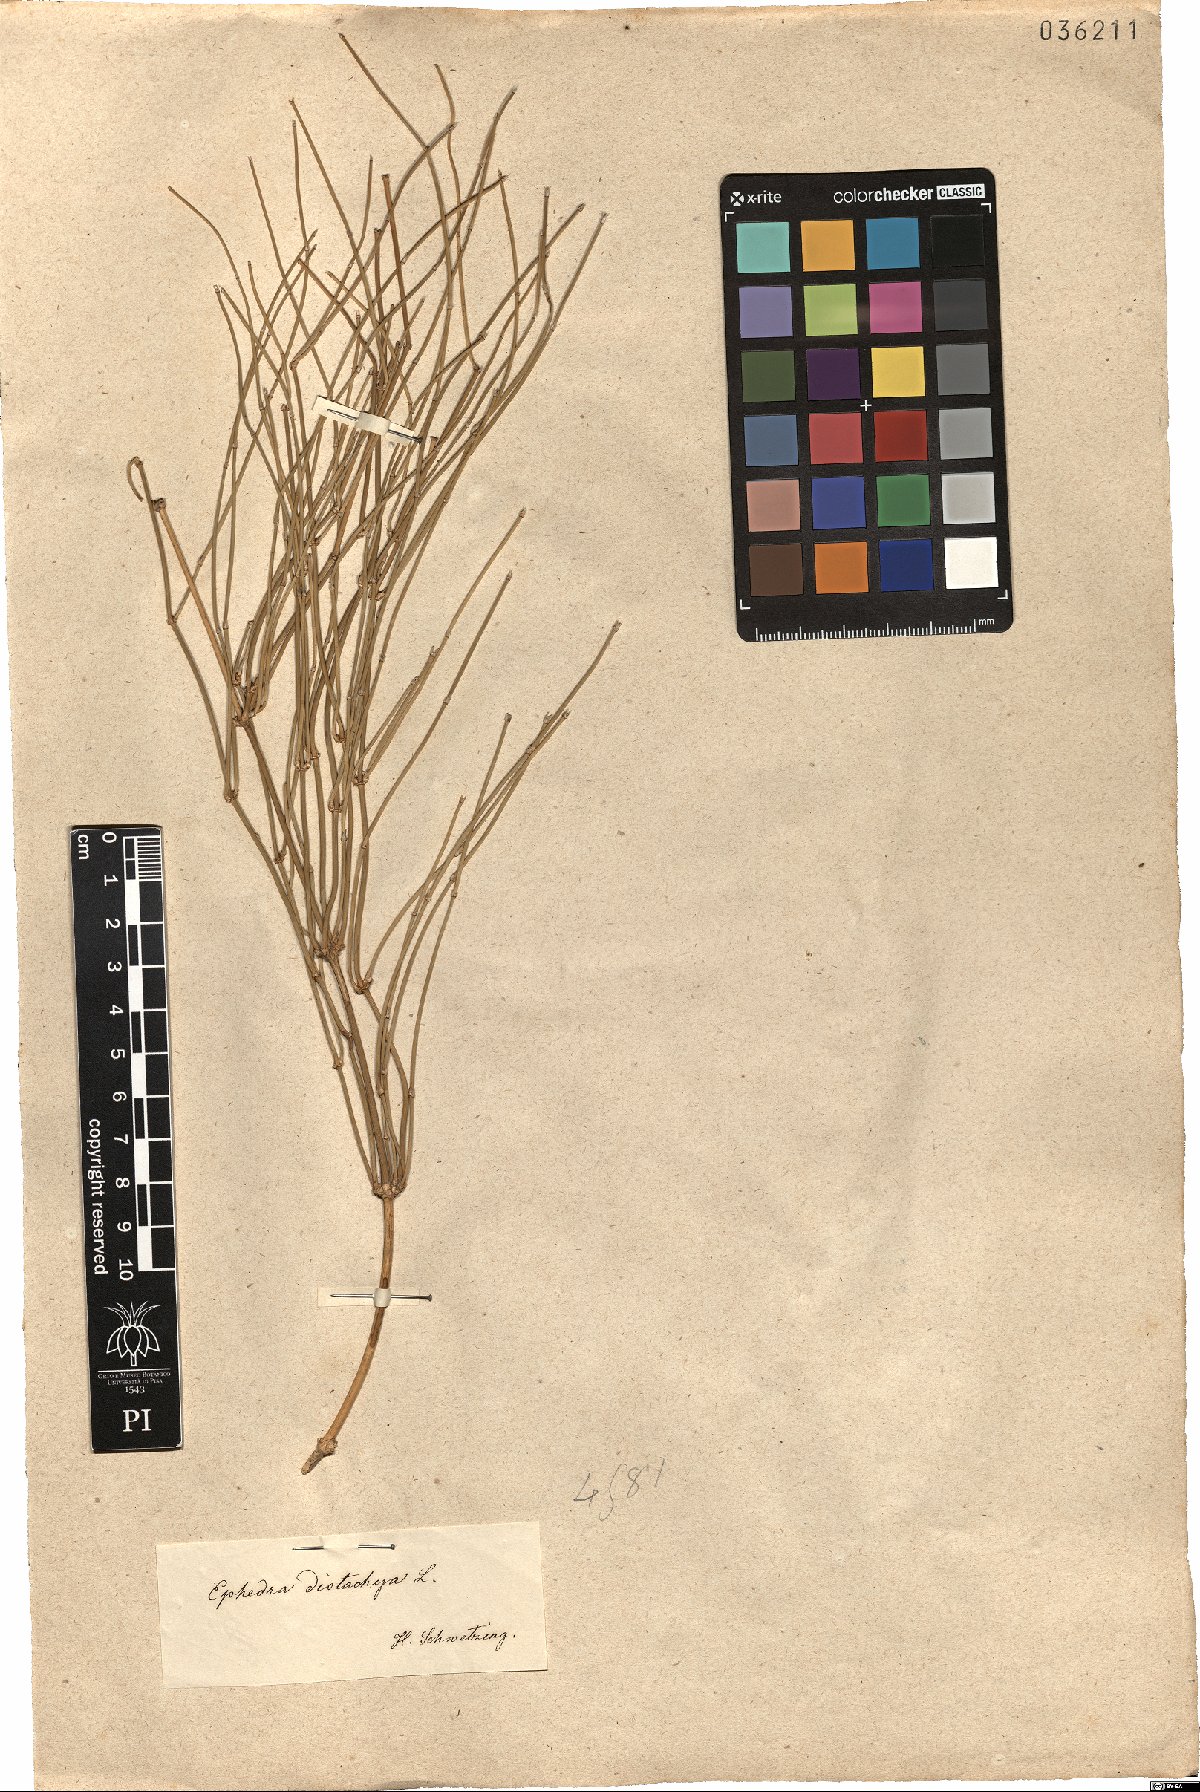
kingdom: Plantae
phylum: Tracheophyta
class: Gnetopsida
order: Ephedrales
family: Ephedraceae
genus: Ephedra
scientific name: Ephedra distachya
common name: Sea grape
